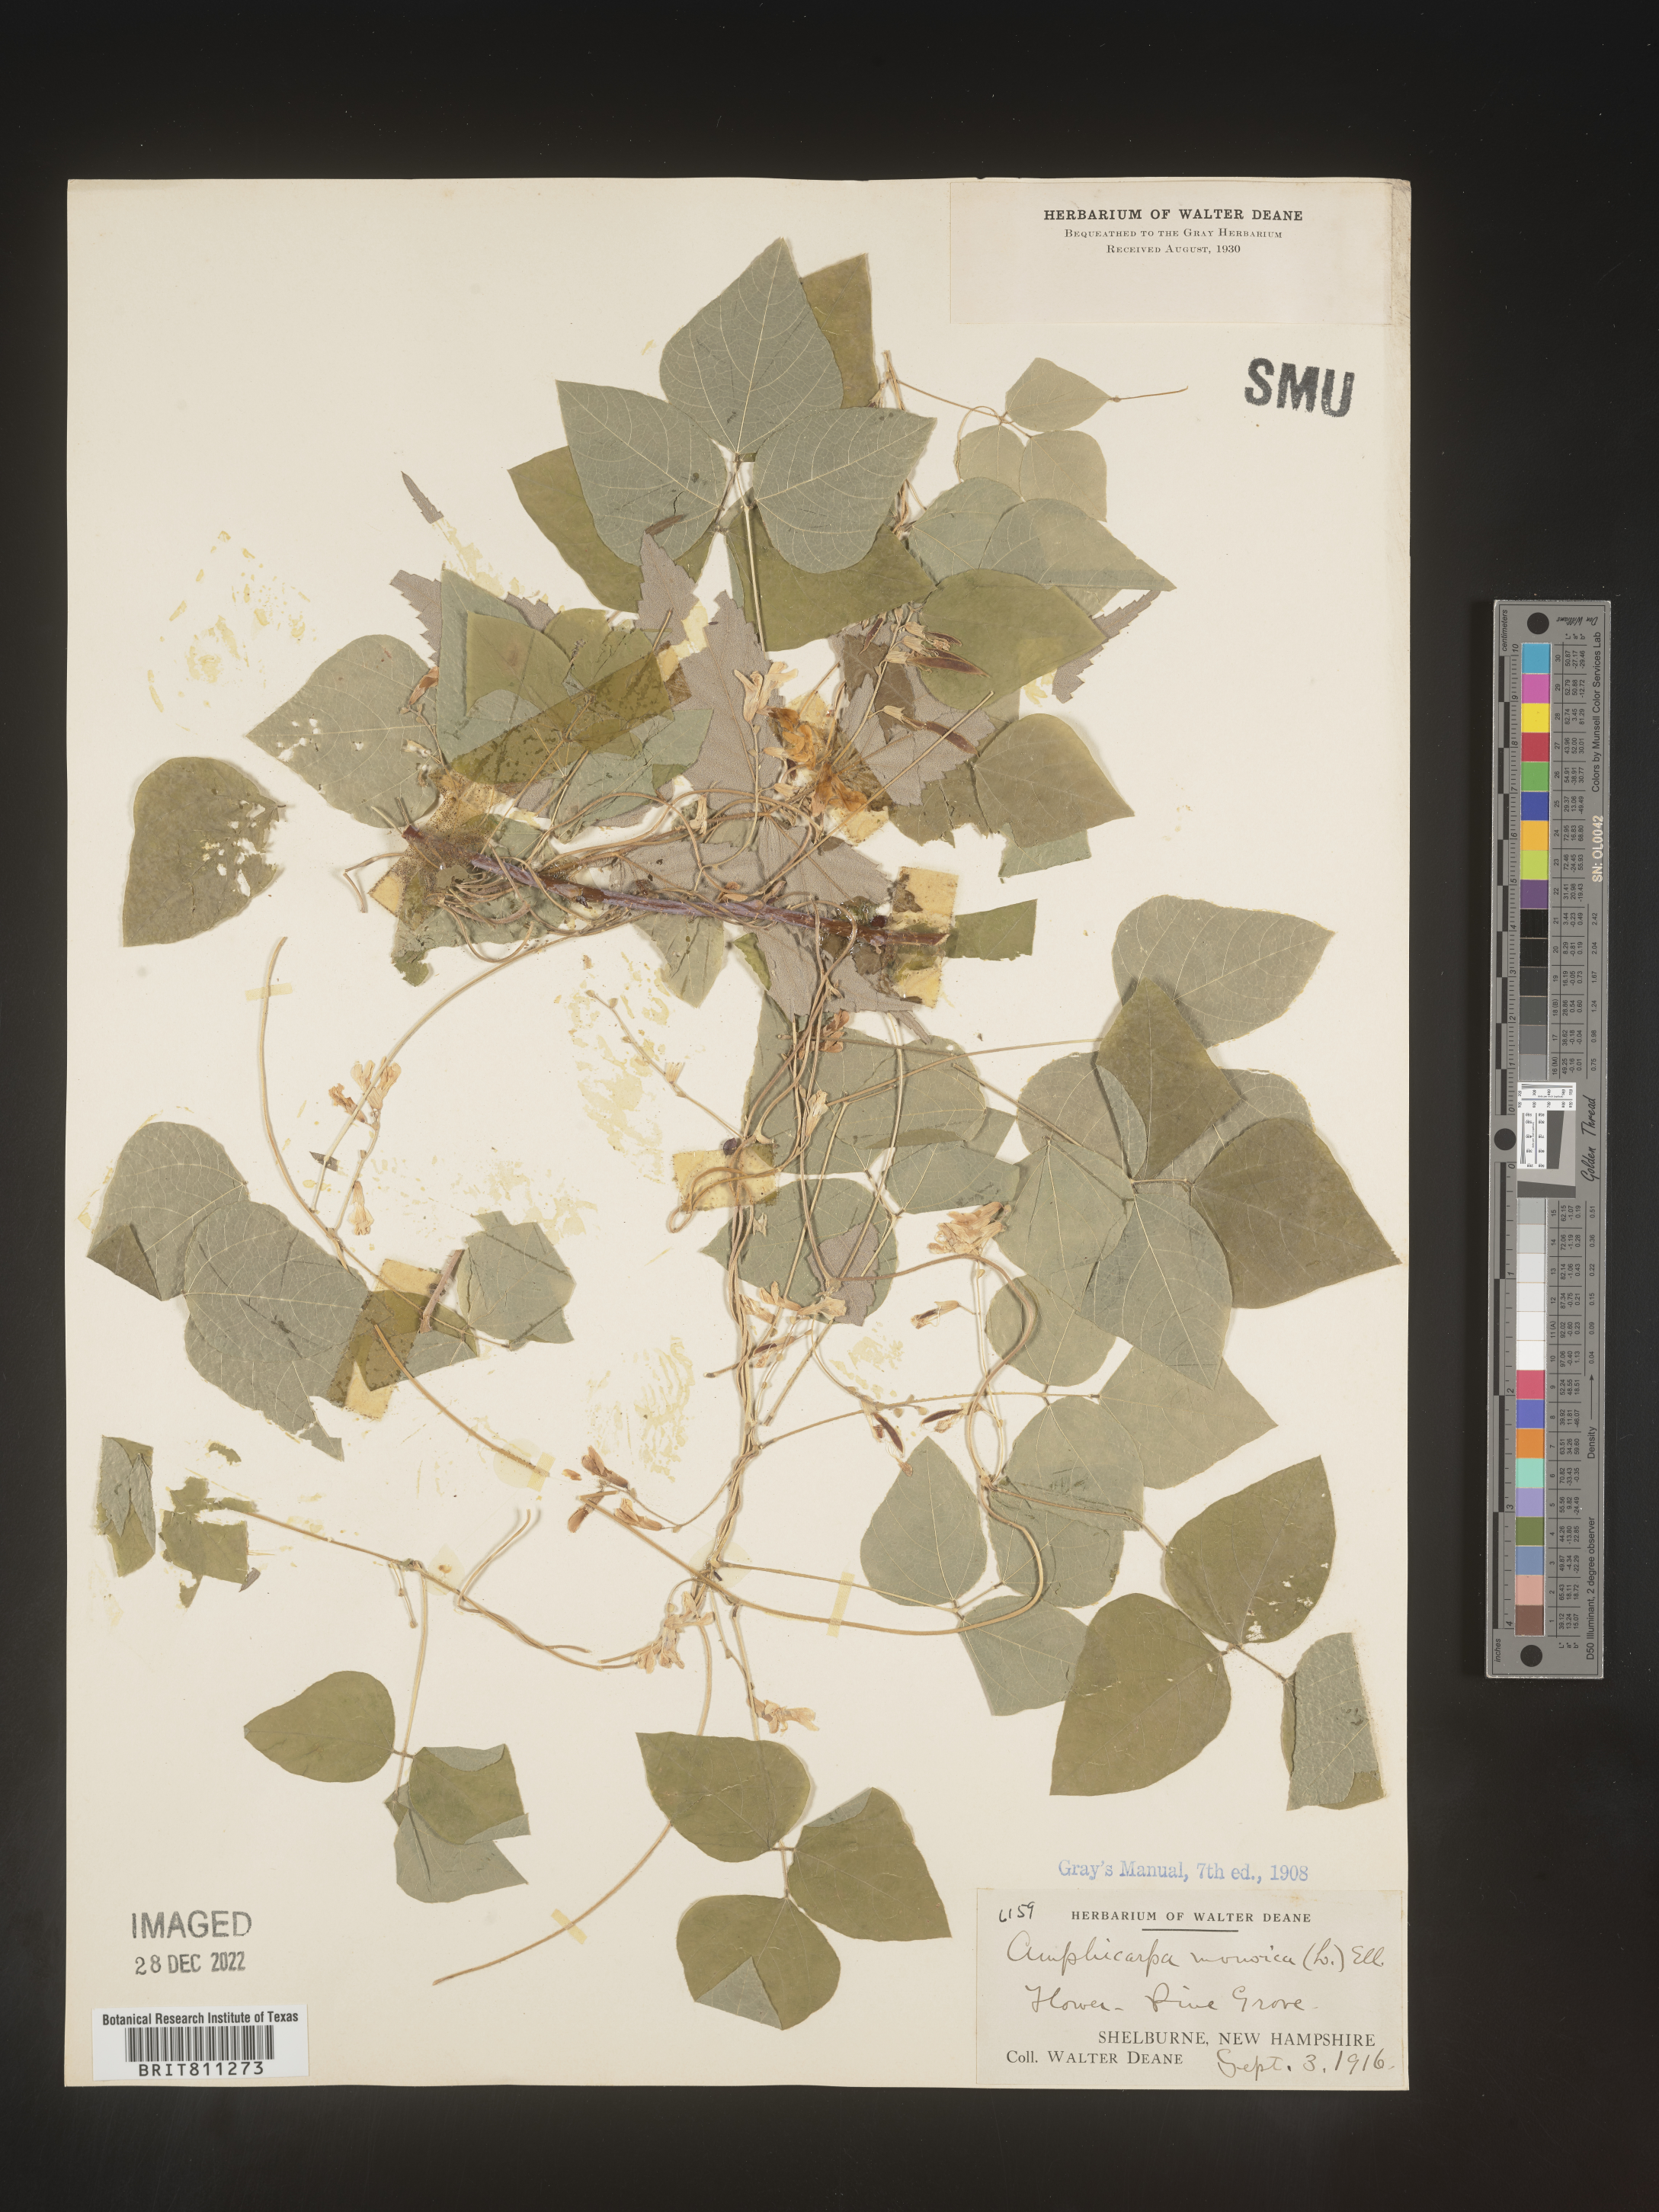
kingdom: Plantae
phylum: Tracheophyta
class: Magnoliopsida
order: Fabales
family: Fabaceae
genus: Amphicarpaea
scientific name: Amphicarpaea bracteata
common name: American hog peanut
